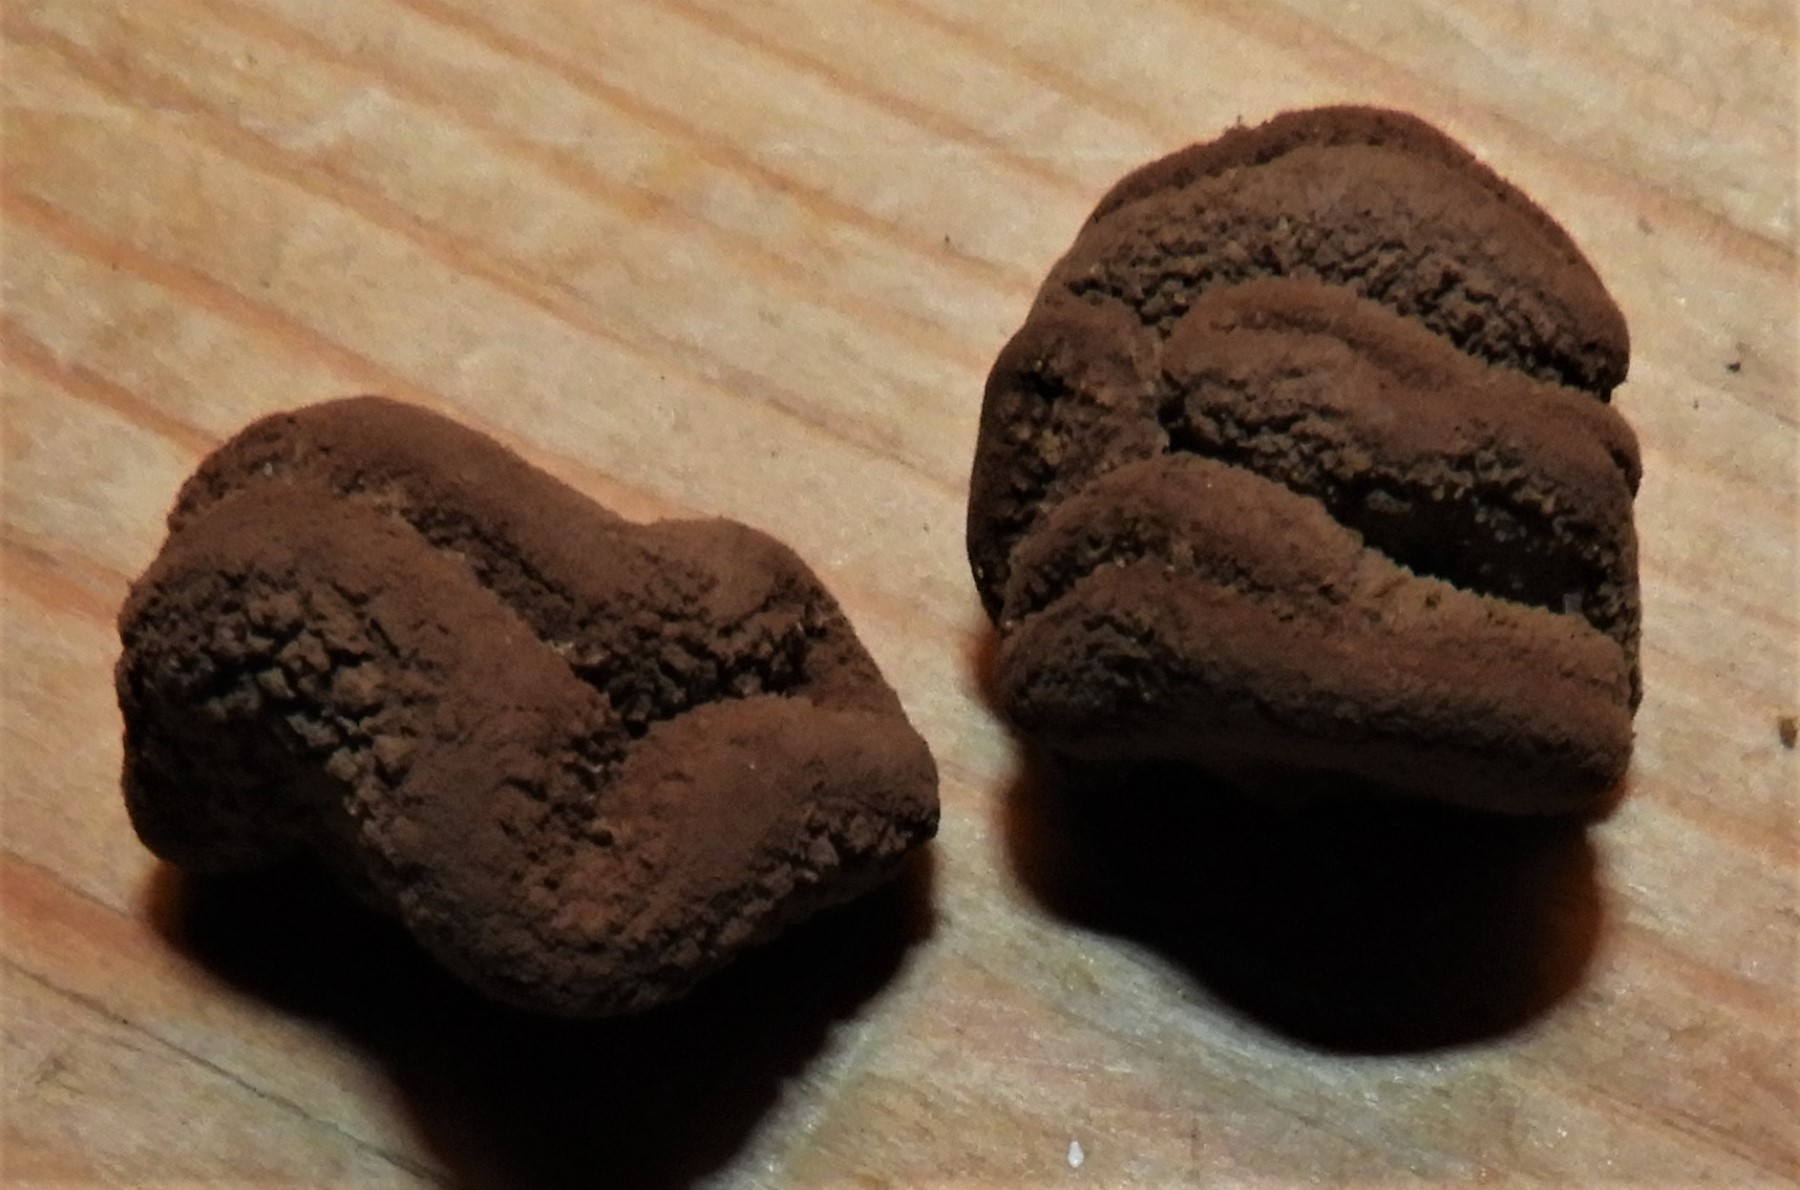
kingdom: Fungi
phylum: Ascomycota
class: Leotiomycetes
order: Helotiales
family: Cenangiaceae
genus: Encoelia
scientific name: Encoelia furfuracea
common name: hassel-læderskive
